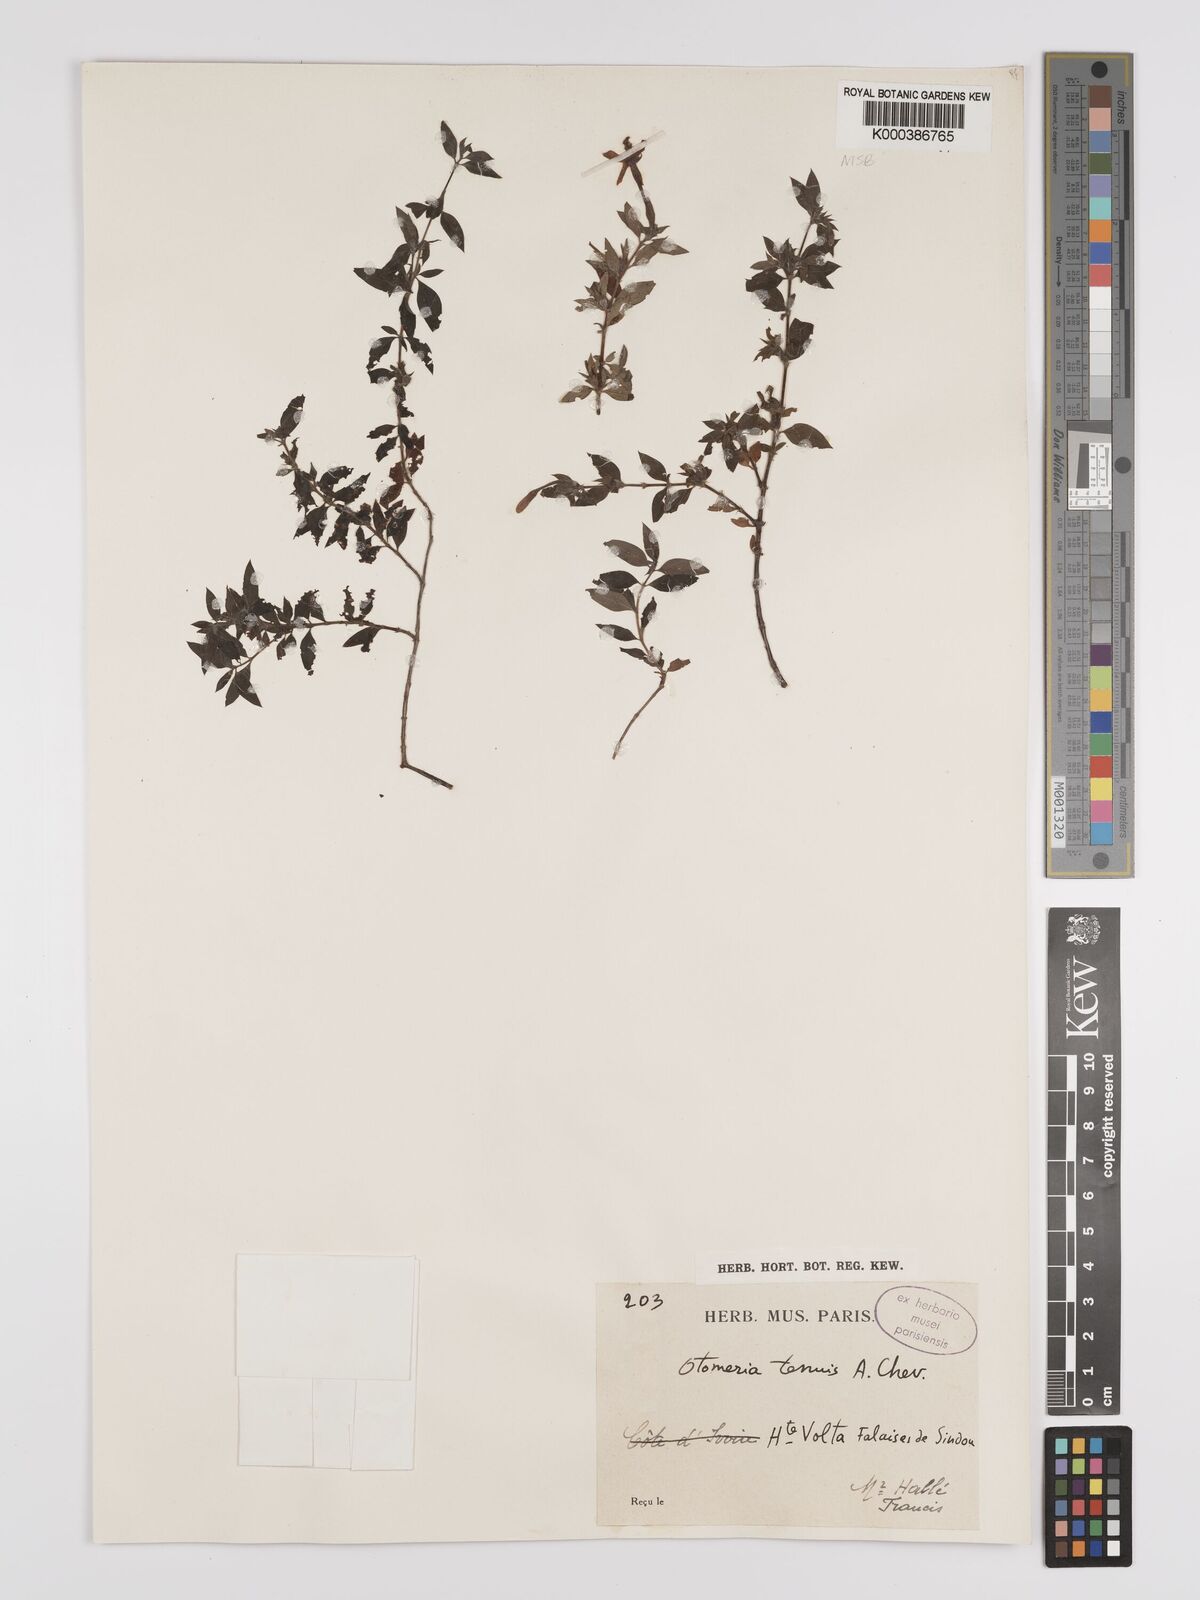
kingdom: Plantae
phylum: Tracheophyta
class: Magnoliopsida
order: Gentianales
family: Rubiaceae
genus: Batopedina
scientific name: Batopedina tenuis
